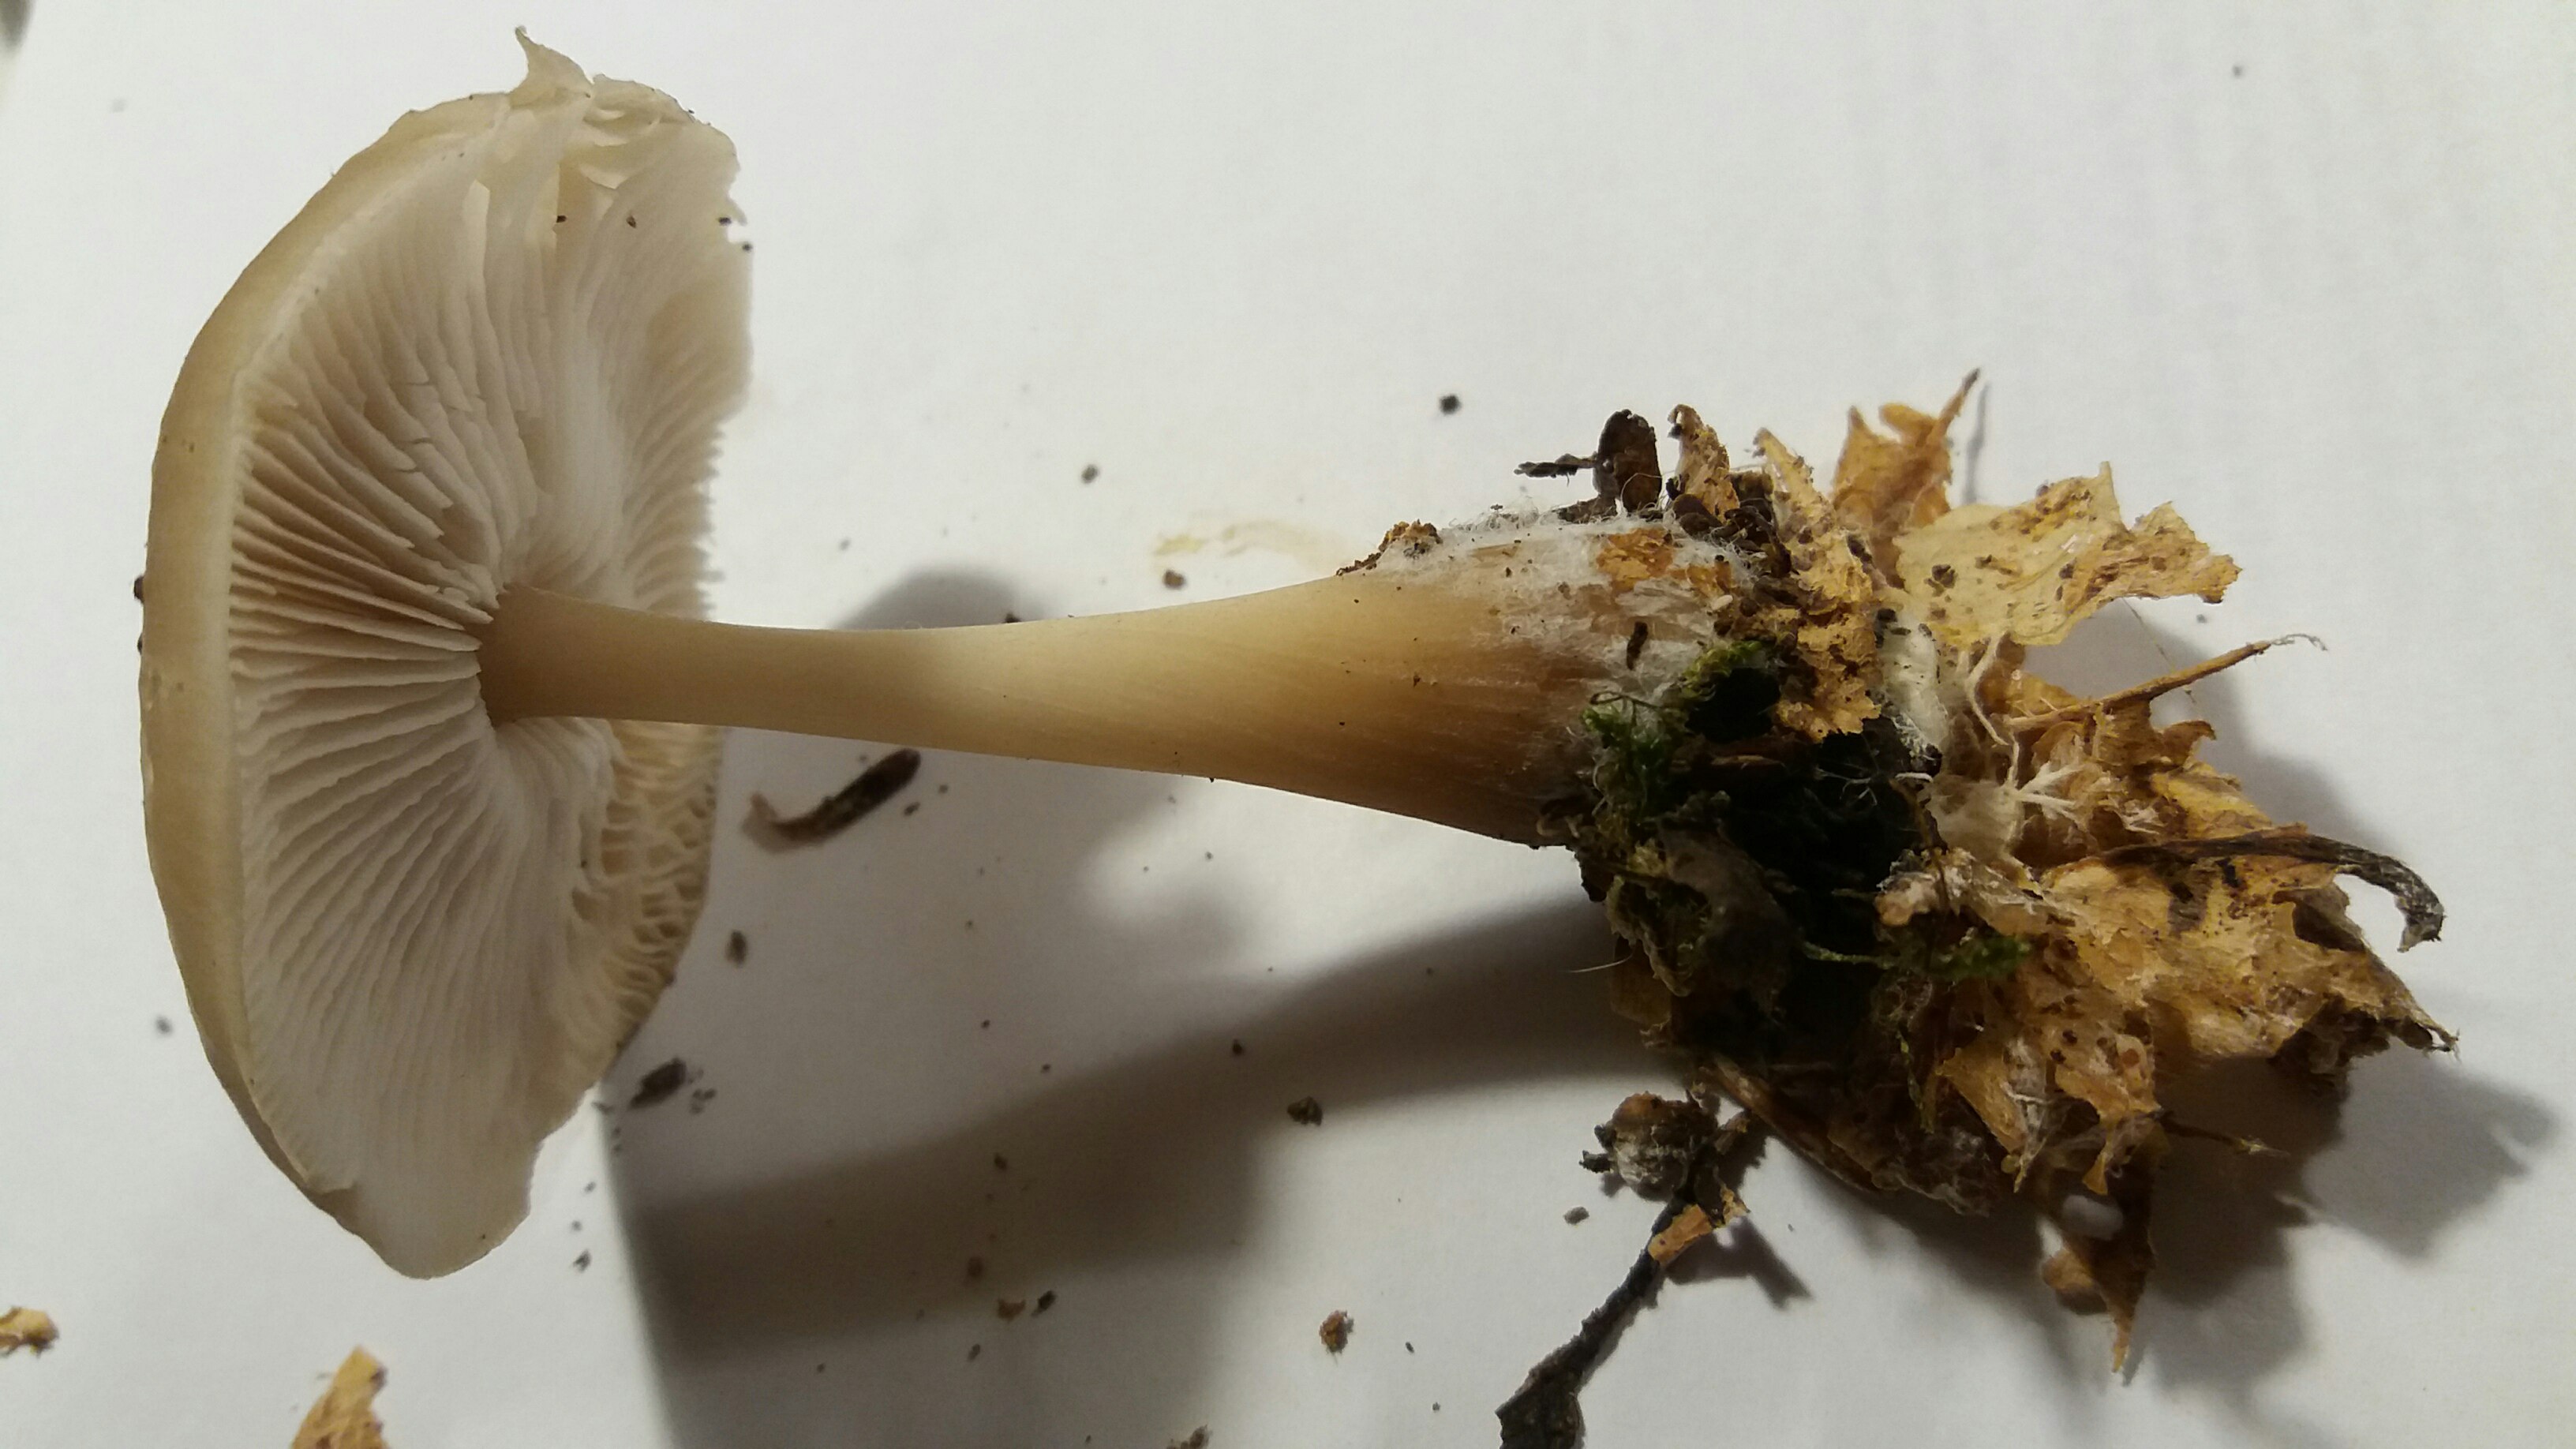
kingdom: Fungi
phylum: Basidiomycota
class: Agaricomycetes
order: Agaricales
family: Omphalotaceae
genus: Rhodocollybia
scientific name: Rhodocollybia asema
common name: horngrå fladhat
